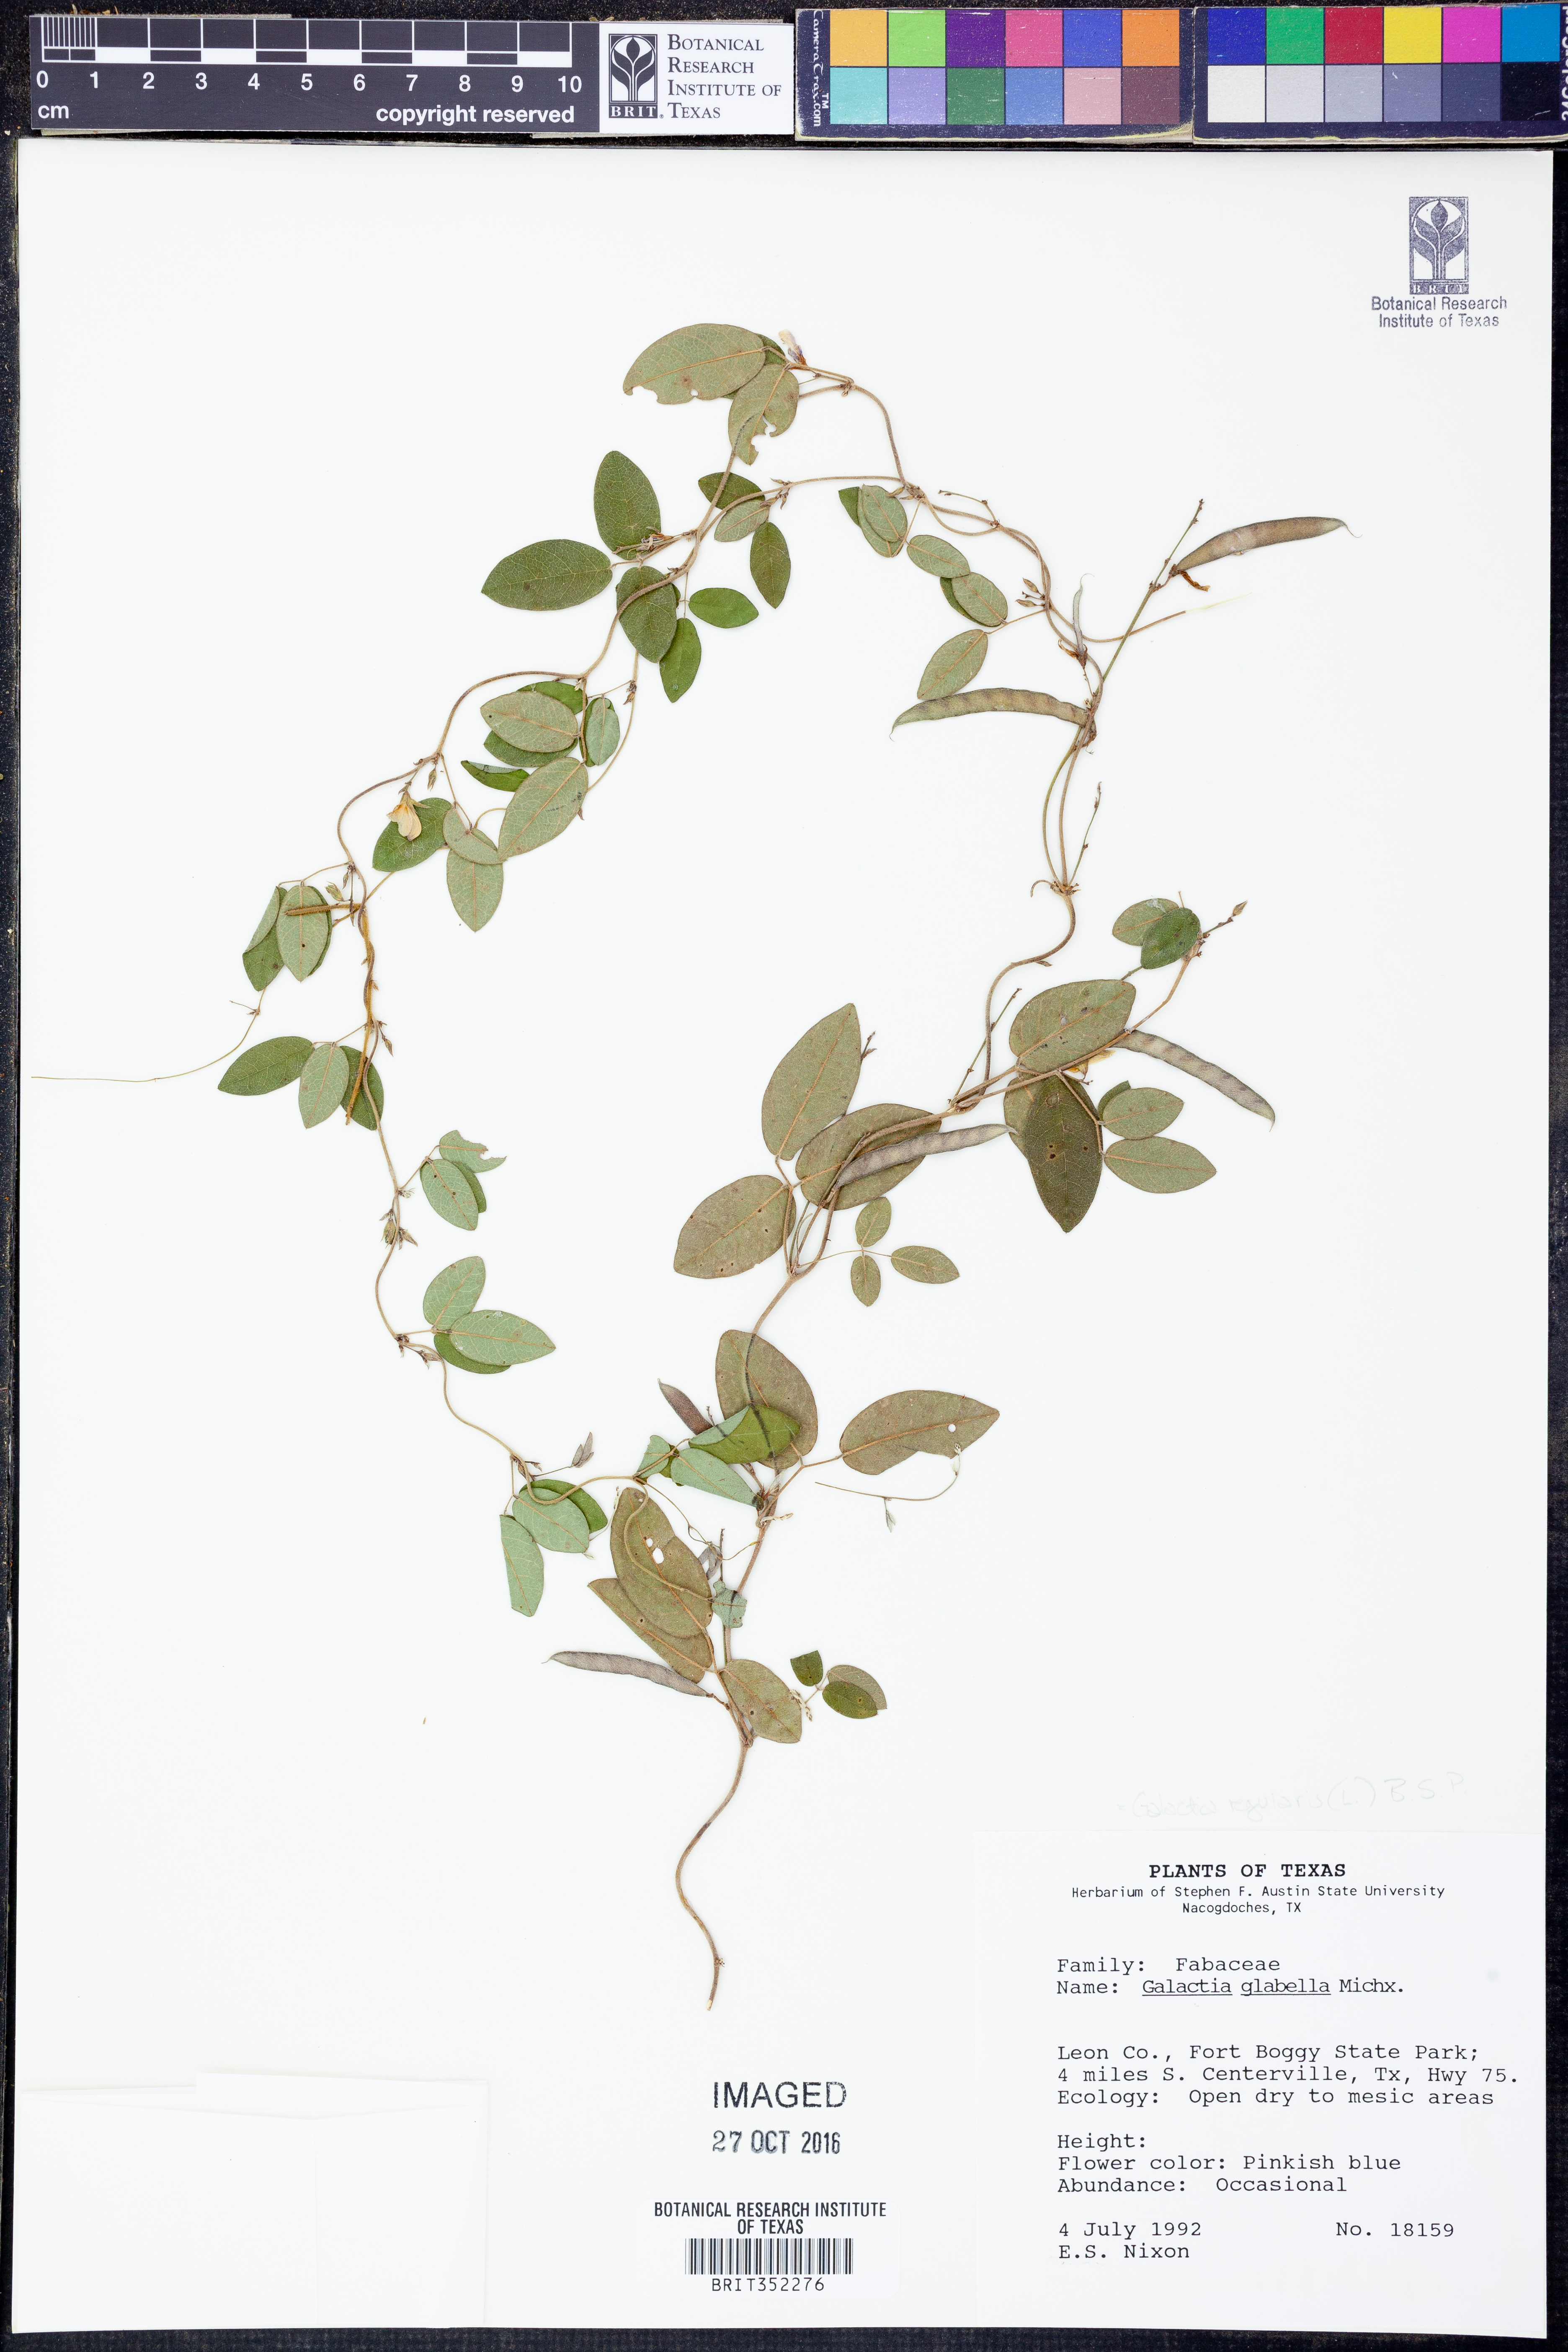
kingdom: Plantae
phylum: Tracheophyta
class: Magnoliopsida
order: Fabales
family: Fabaceae
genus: Galactia
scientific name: Galactia regularis
